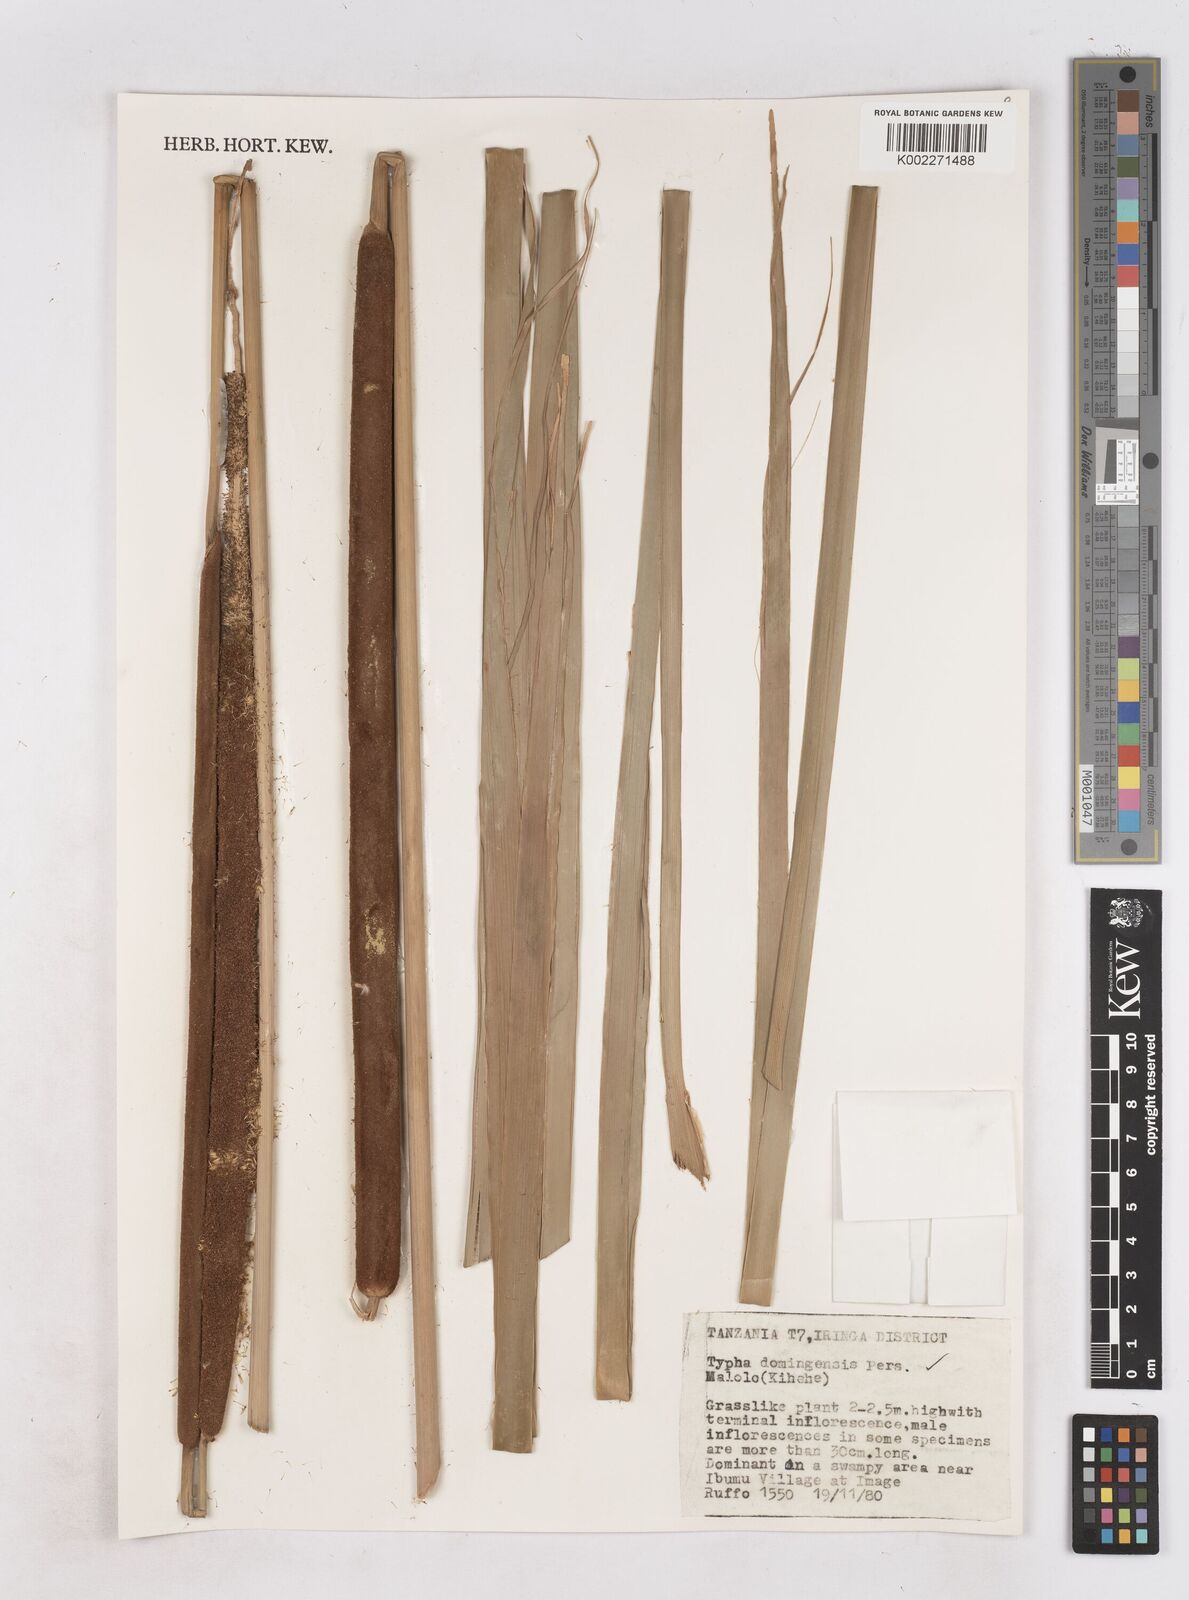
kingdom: Plantae
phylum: Tracheophyta
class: Liliopsida
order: Poales
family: Typhaceae
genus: Typha
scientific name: Typha domingensis
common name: Southern cattail
